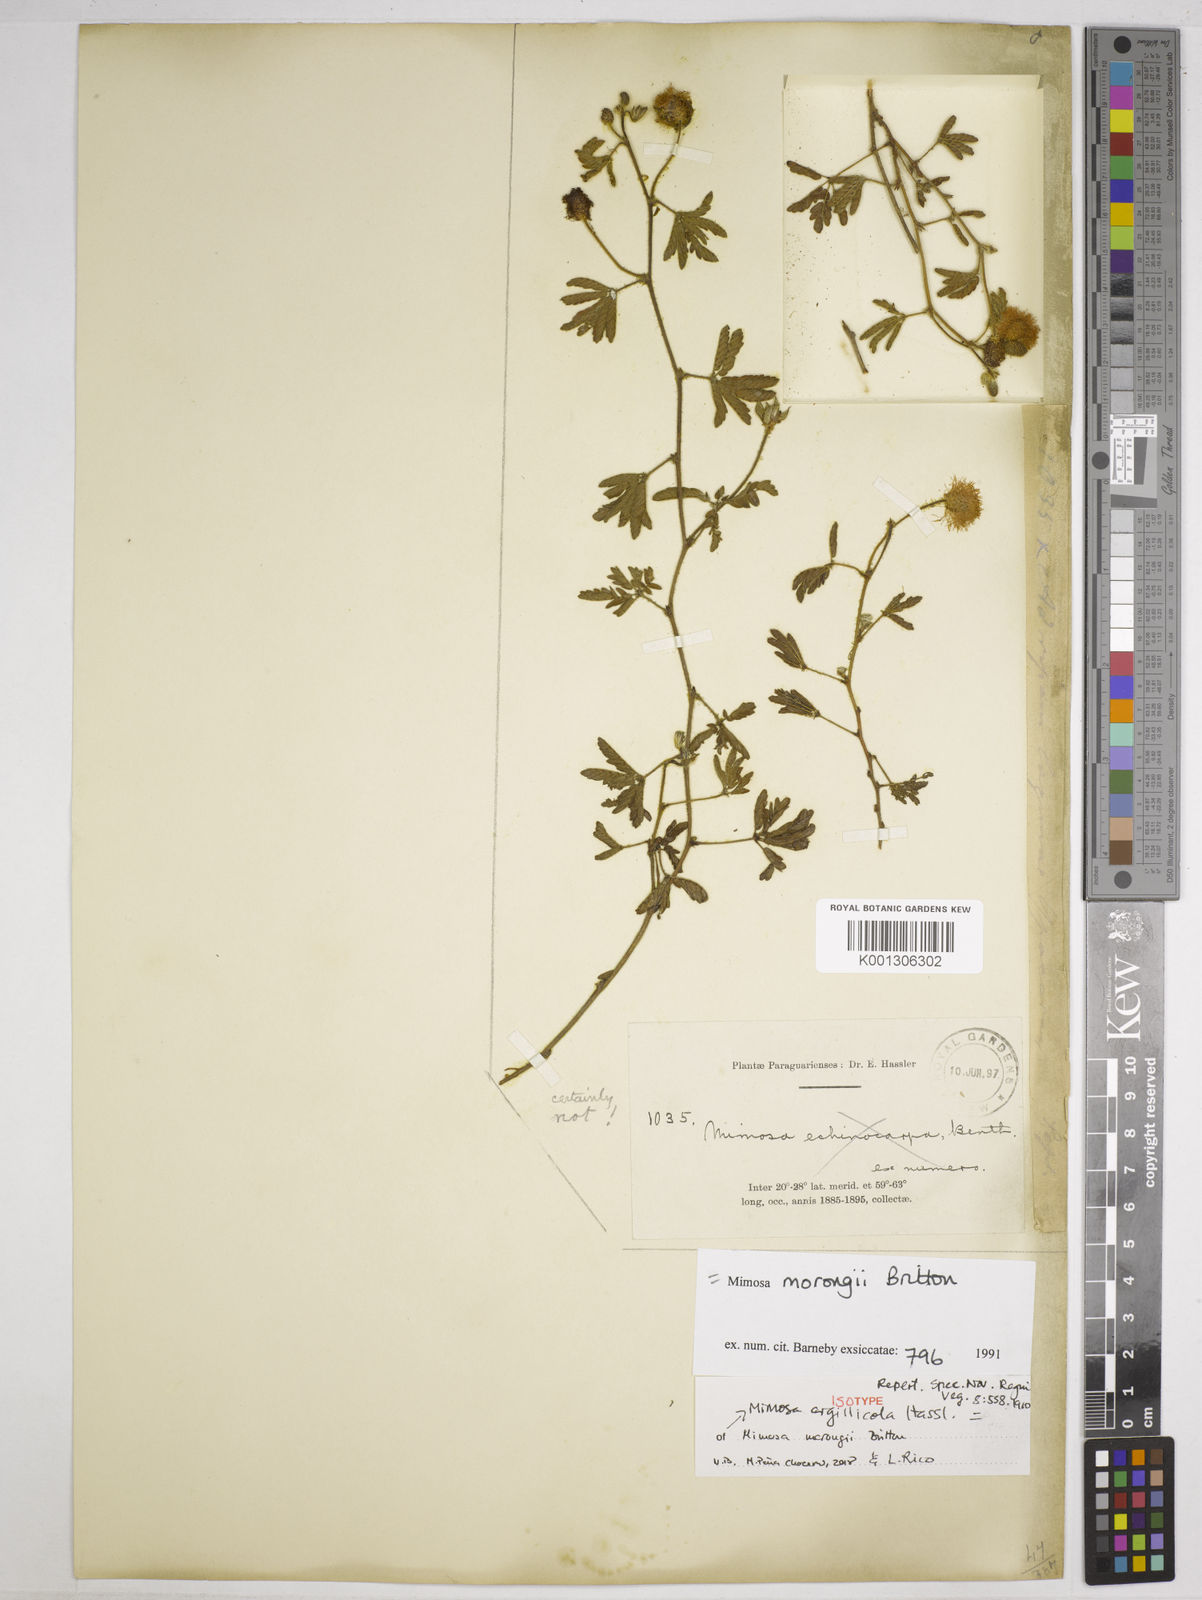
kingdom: Plantae
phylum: Tracheophyta
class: Magnoliopsida
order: Fabales
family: Fabaceae
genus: Mimosa
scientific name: Mimosa morongii
